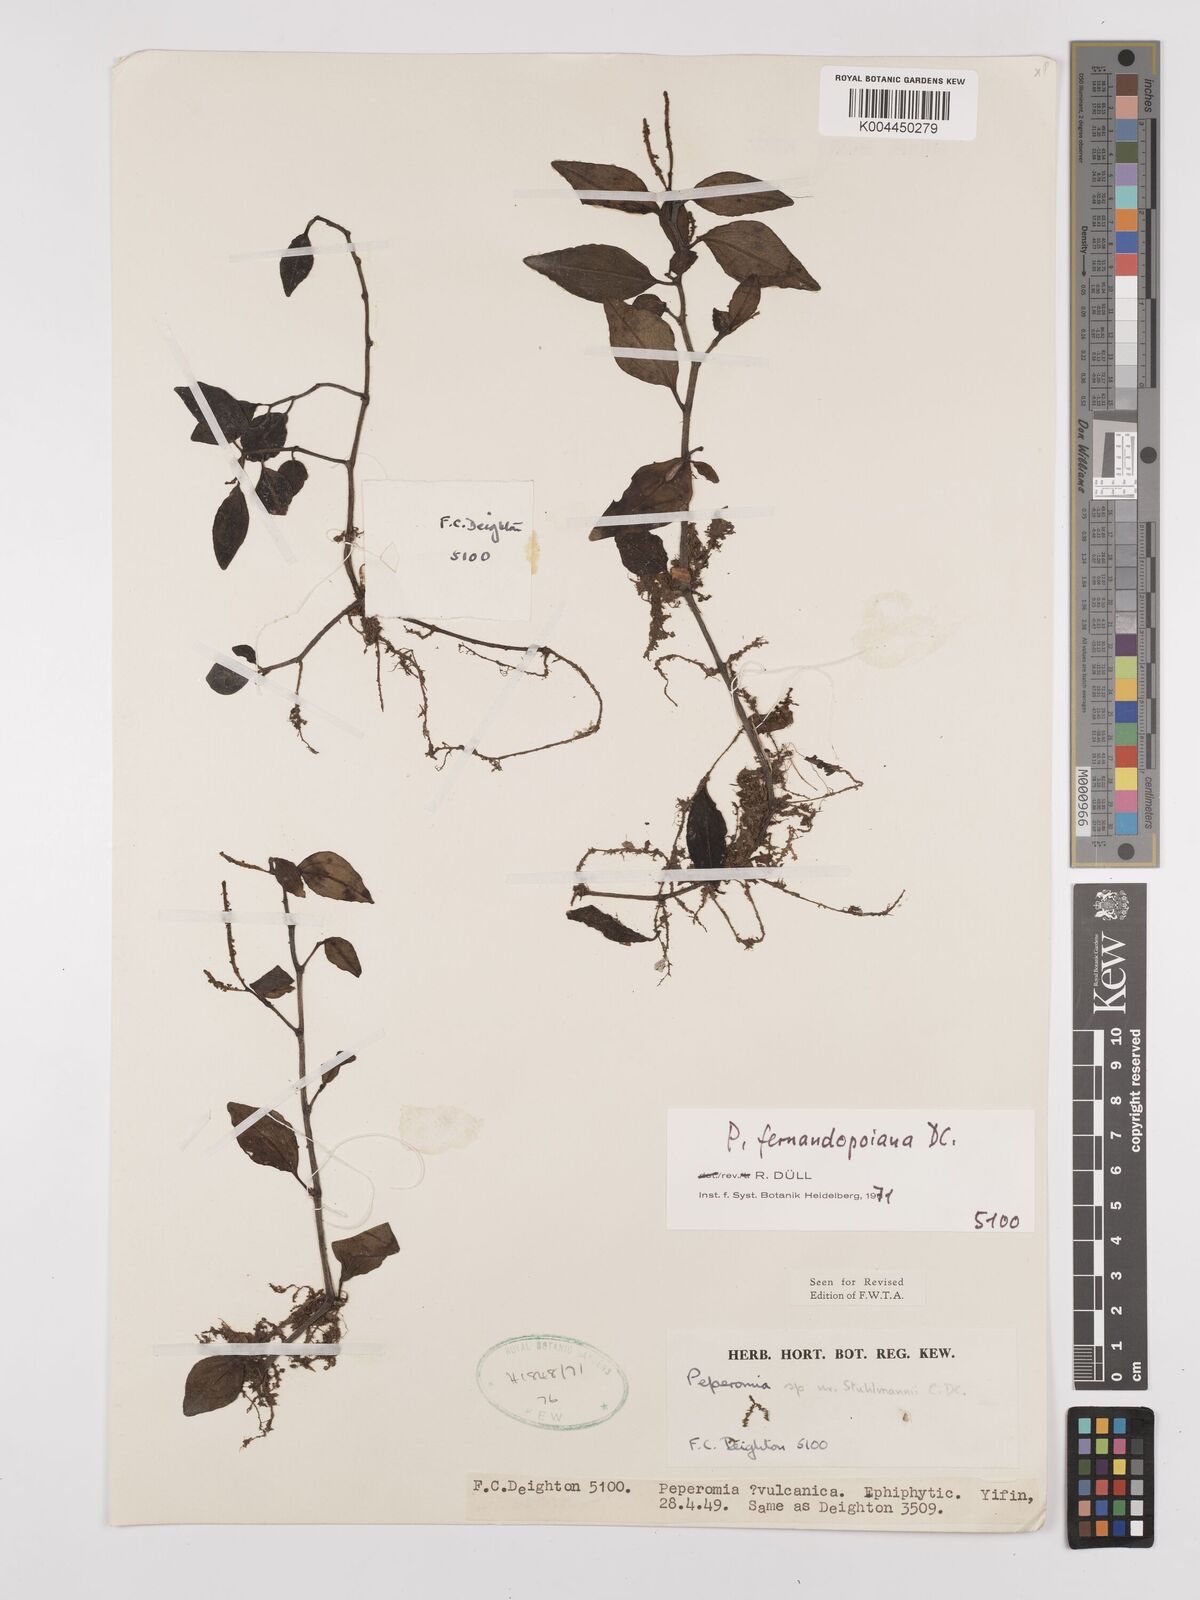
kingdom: Plantae
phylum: Tracheophyta
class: Magnoliopsida
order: Piperales
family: Piperaceae
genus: Peperomia
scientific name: Peperomia fernandeziana
